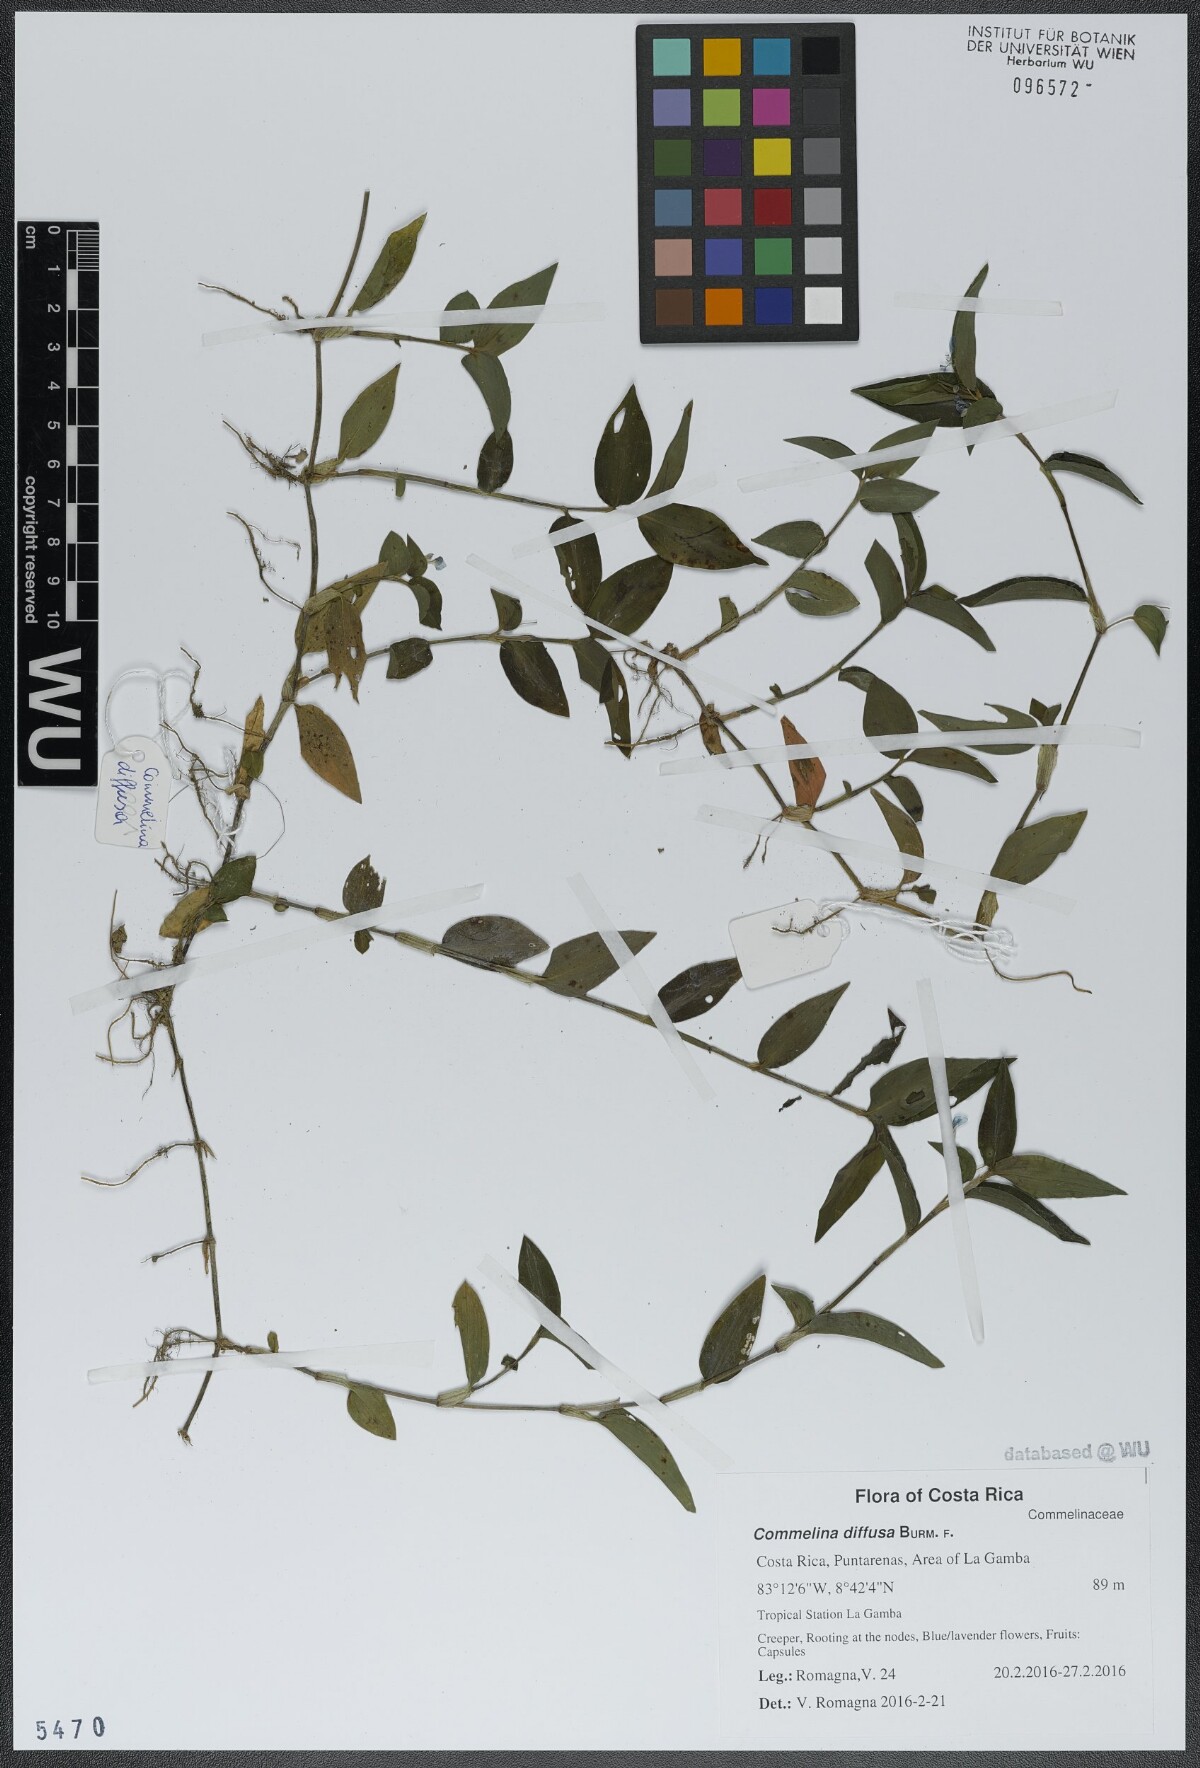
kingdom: Plantae
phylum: Tracheophyta
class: Liliopsida
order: Commelinales
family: Commelinaceae
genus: Commelina
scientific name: Commelina diffusa
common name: Climbing dayflower
